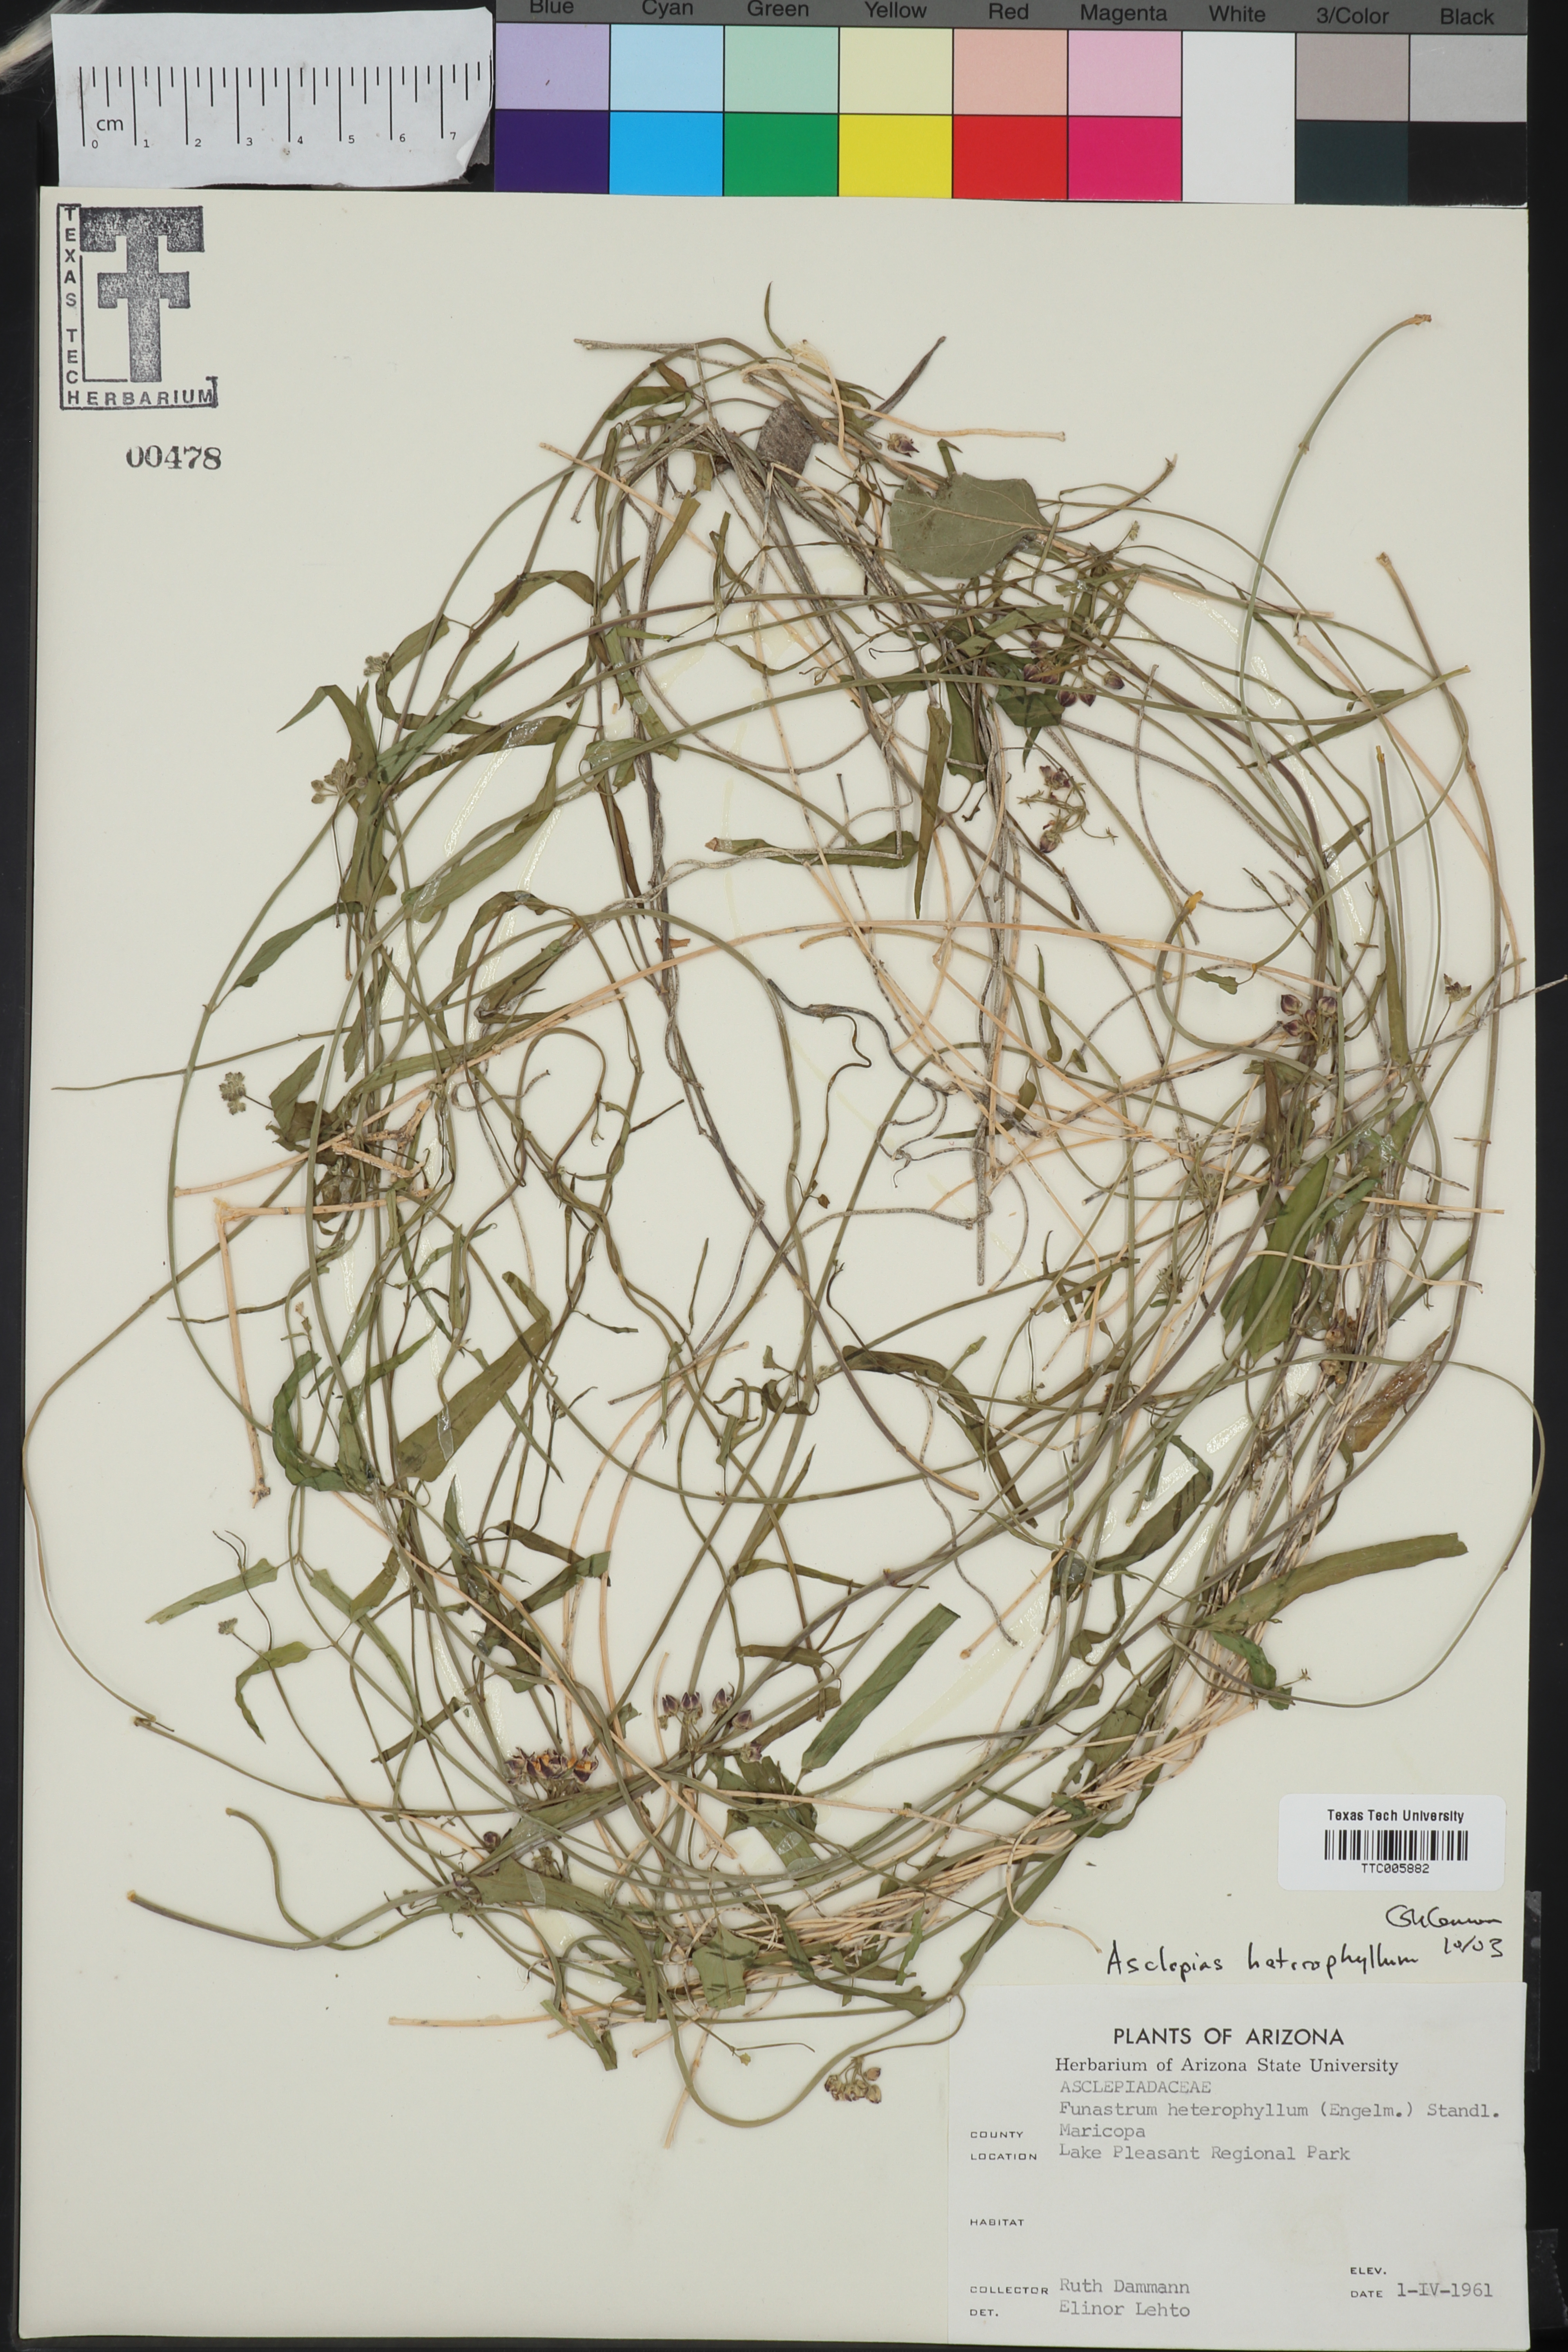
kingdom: Plantae
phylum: Tracheophyta
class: Magnoliopsida
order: Gentianales
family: Apocynaceae
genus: Calotropis
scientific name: Calotropis procera
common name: Roostertree
